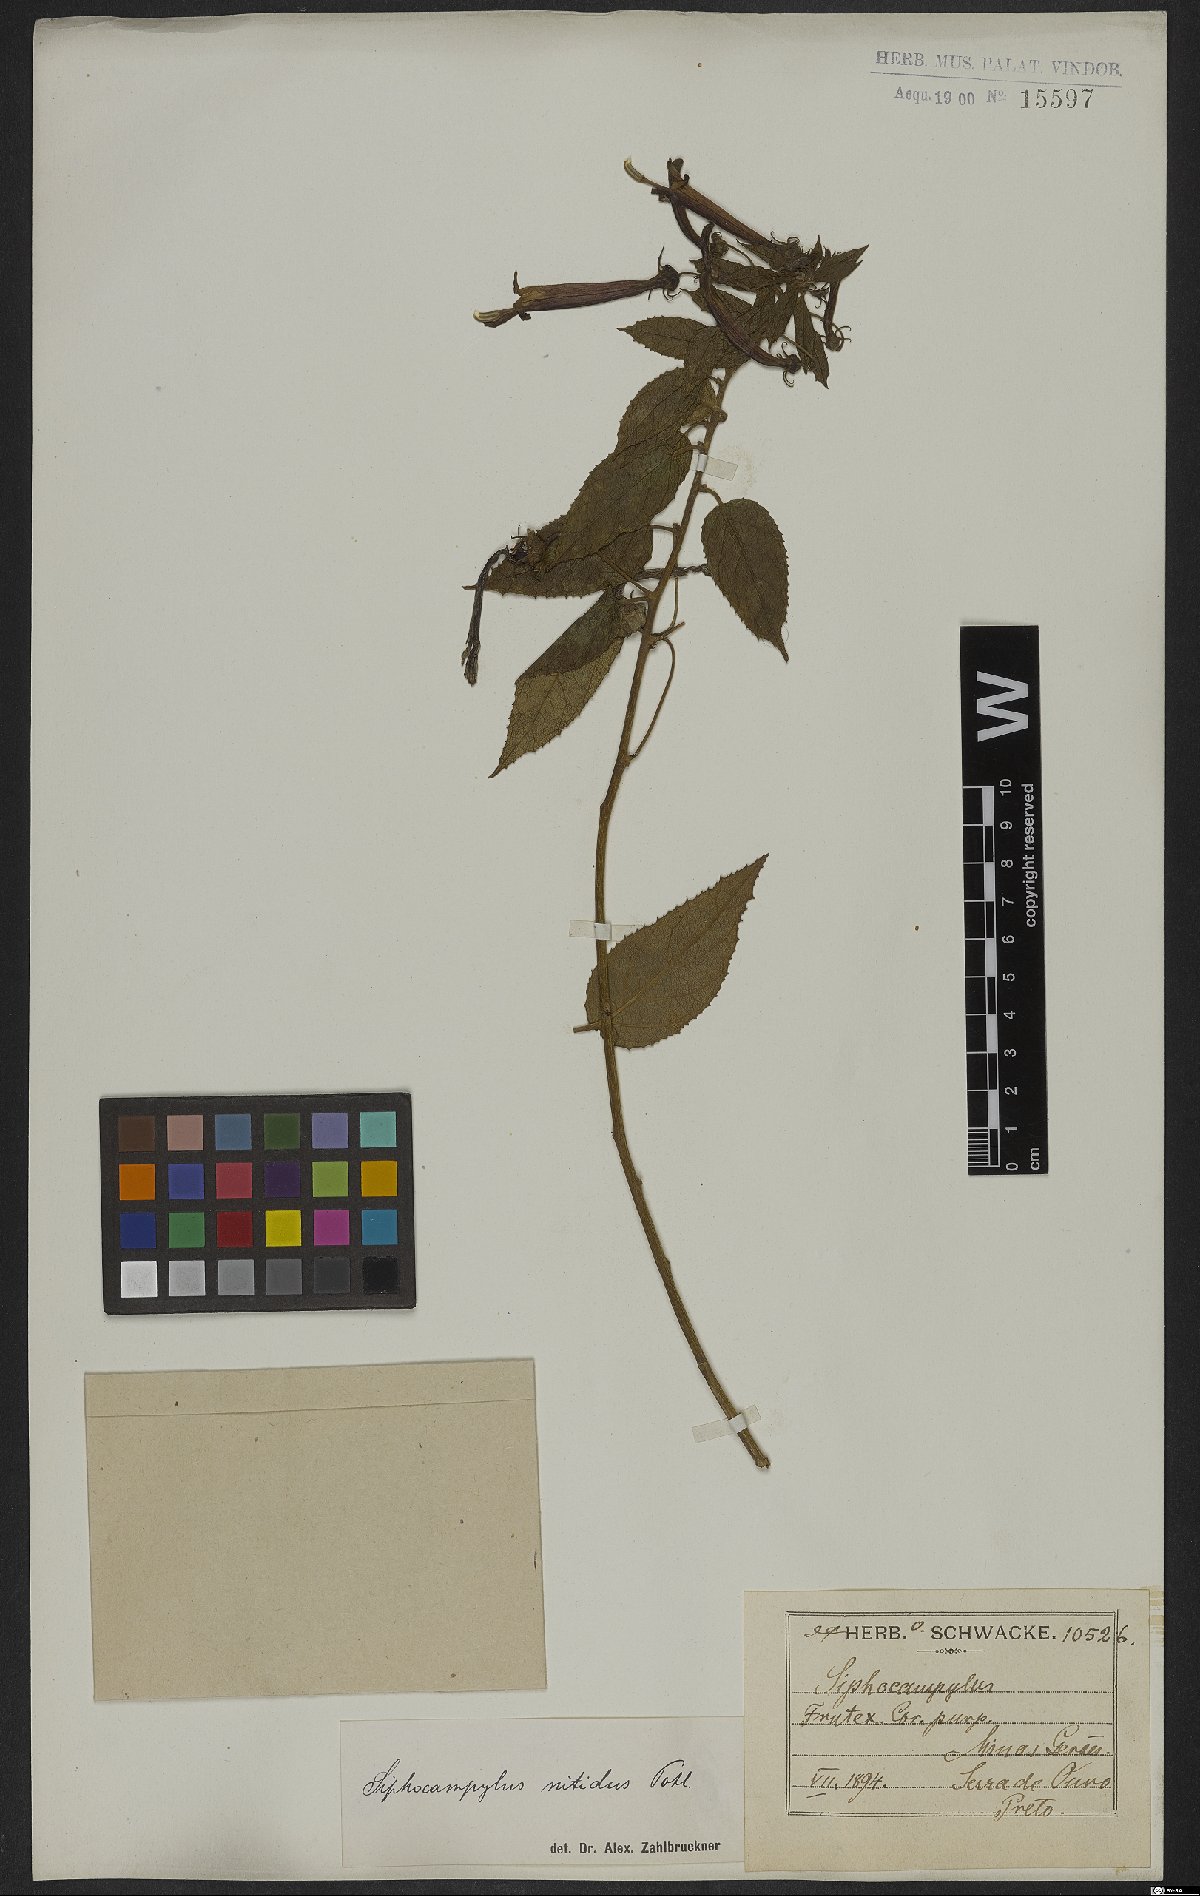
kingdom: Plantae
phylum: Tracheophyta
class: Magnoliopsida
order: Asterales
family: Campanulaceae
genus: Siphocampylus
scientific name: Siphocampylus nitidus
